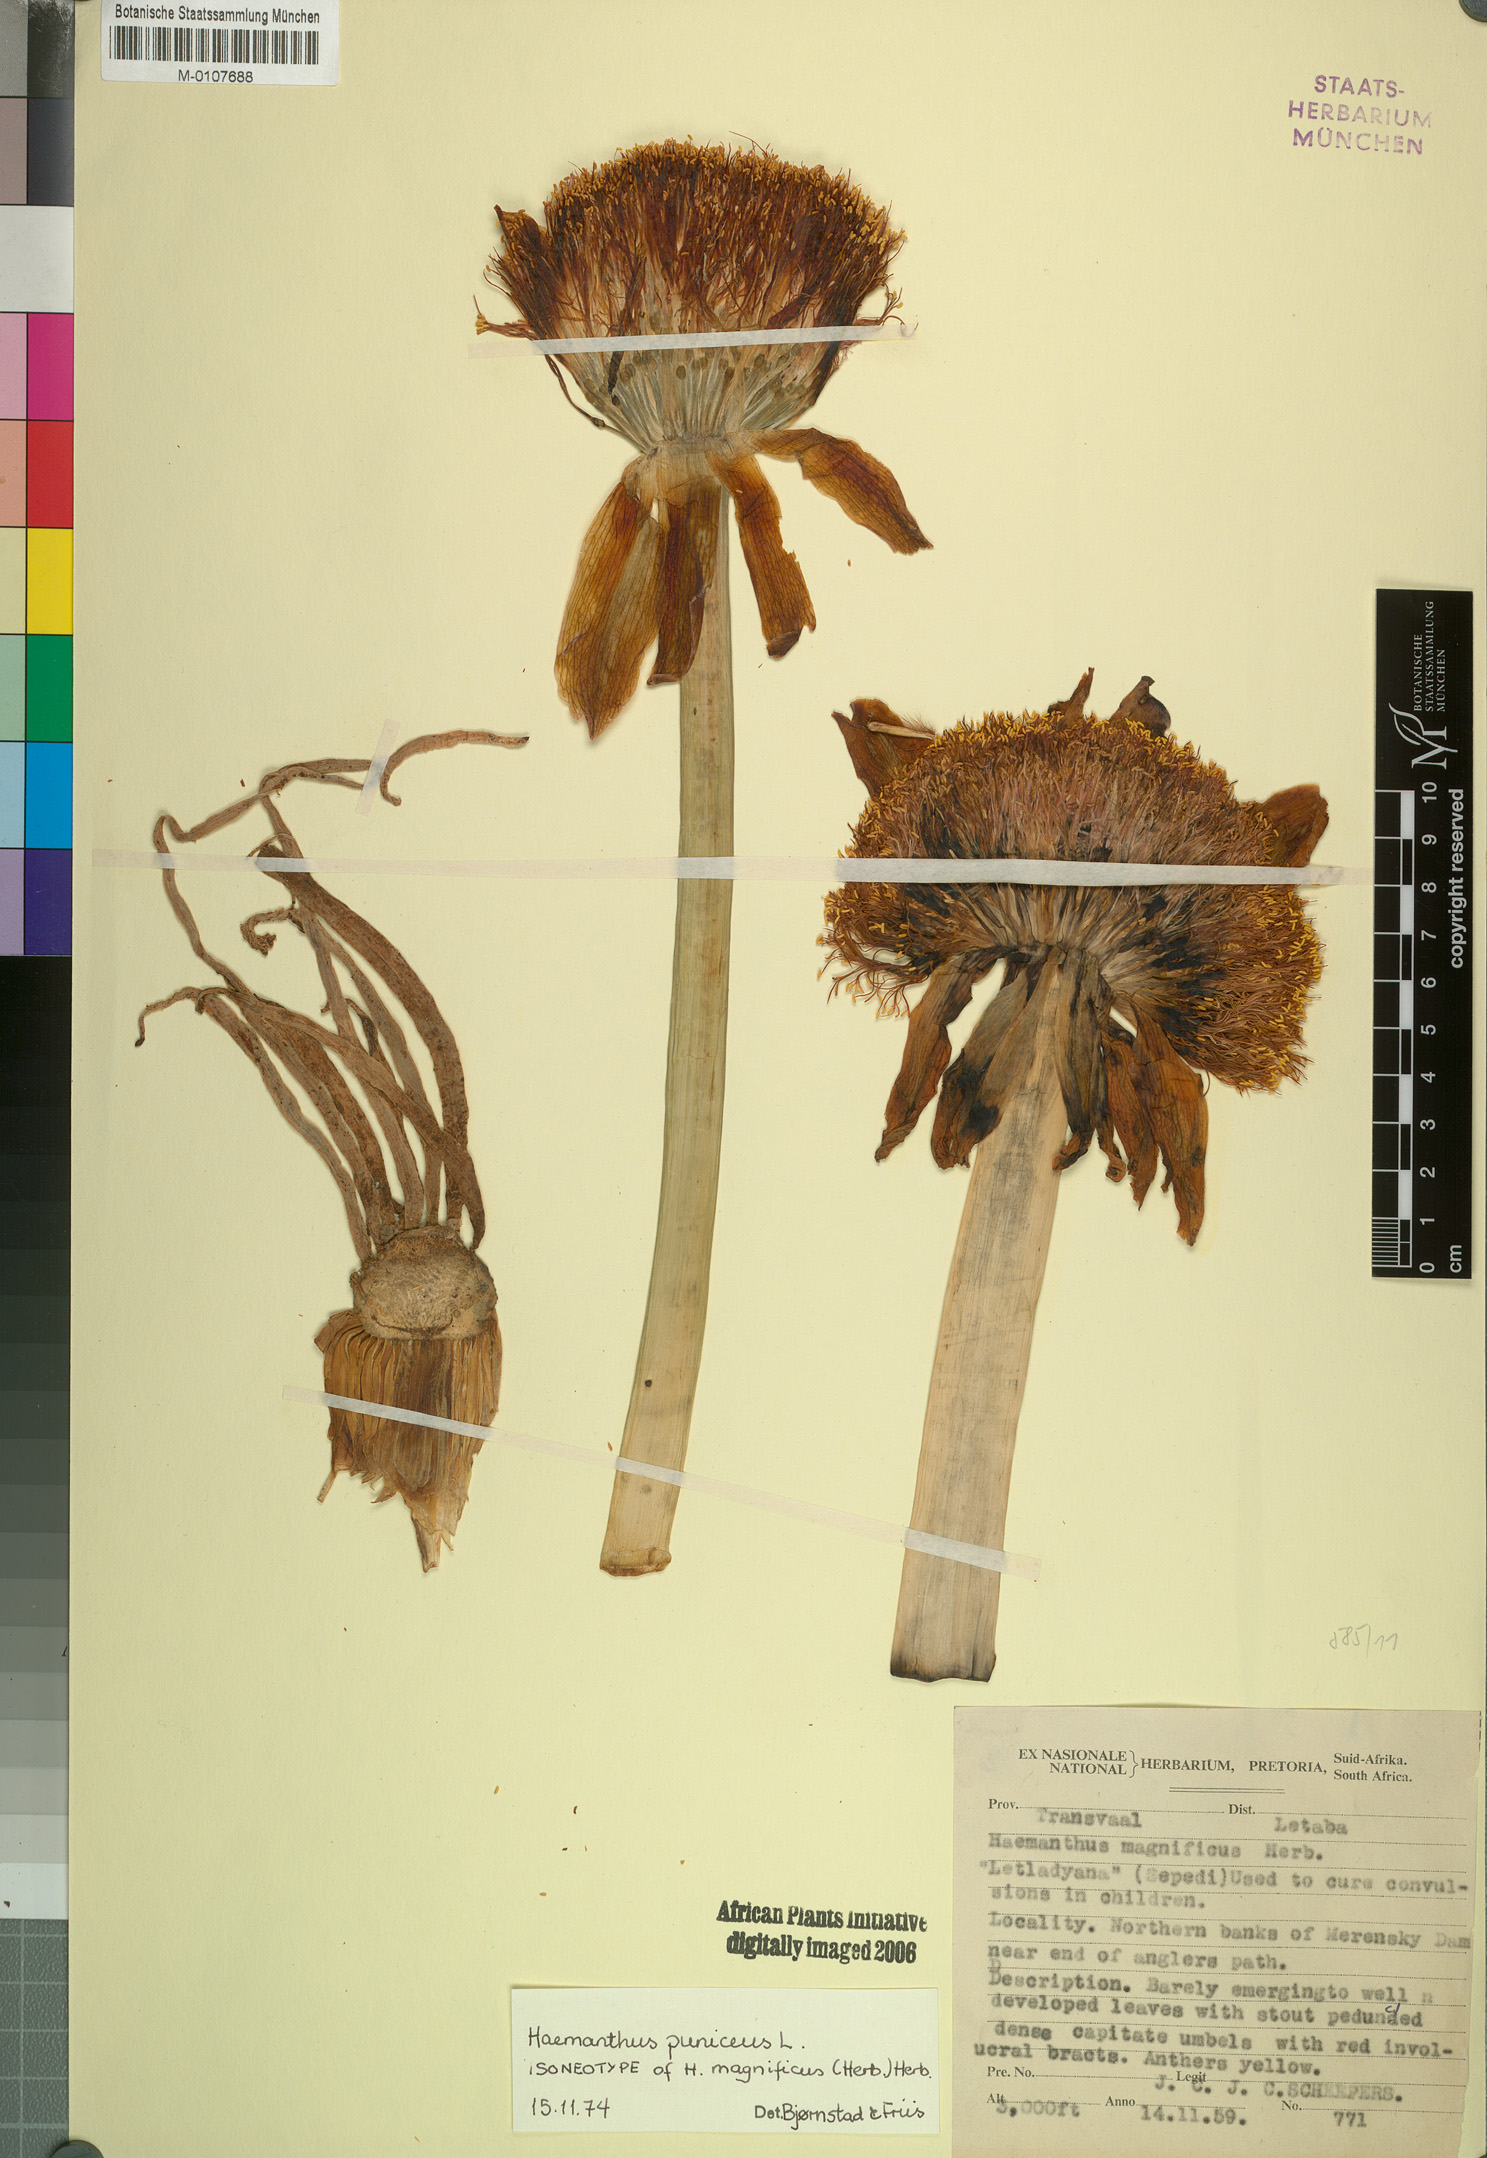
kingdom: Plantae
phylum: Tracheophyta
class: Liliopsida
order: Asparagales
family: Amaryllidaceae
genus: Scadoxus
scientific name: Scadoxus puniceus
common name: Royal-paintbrush
